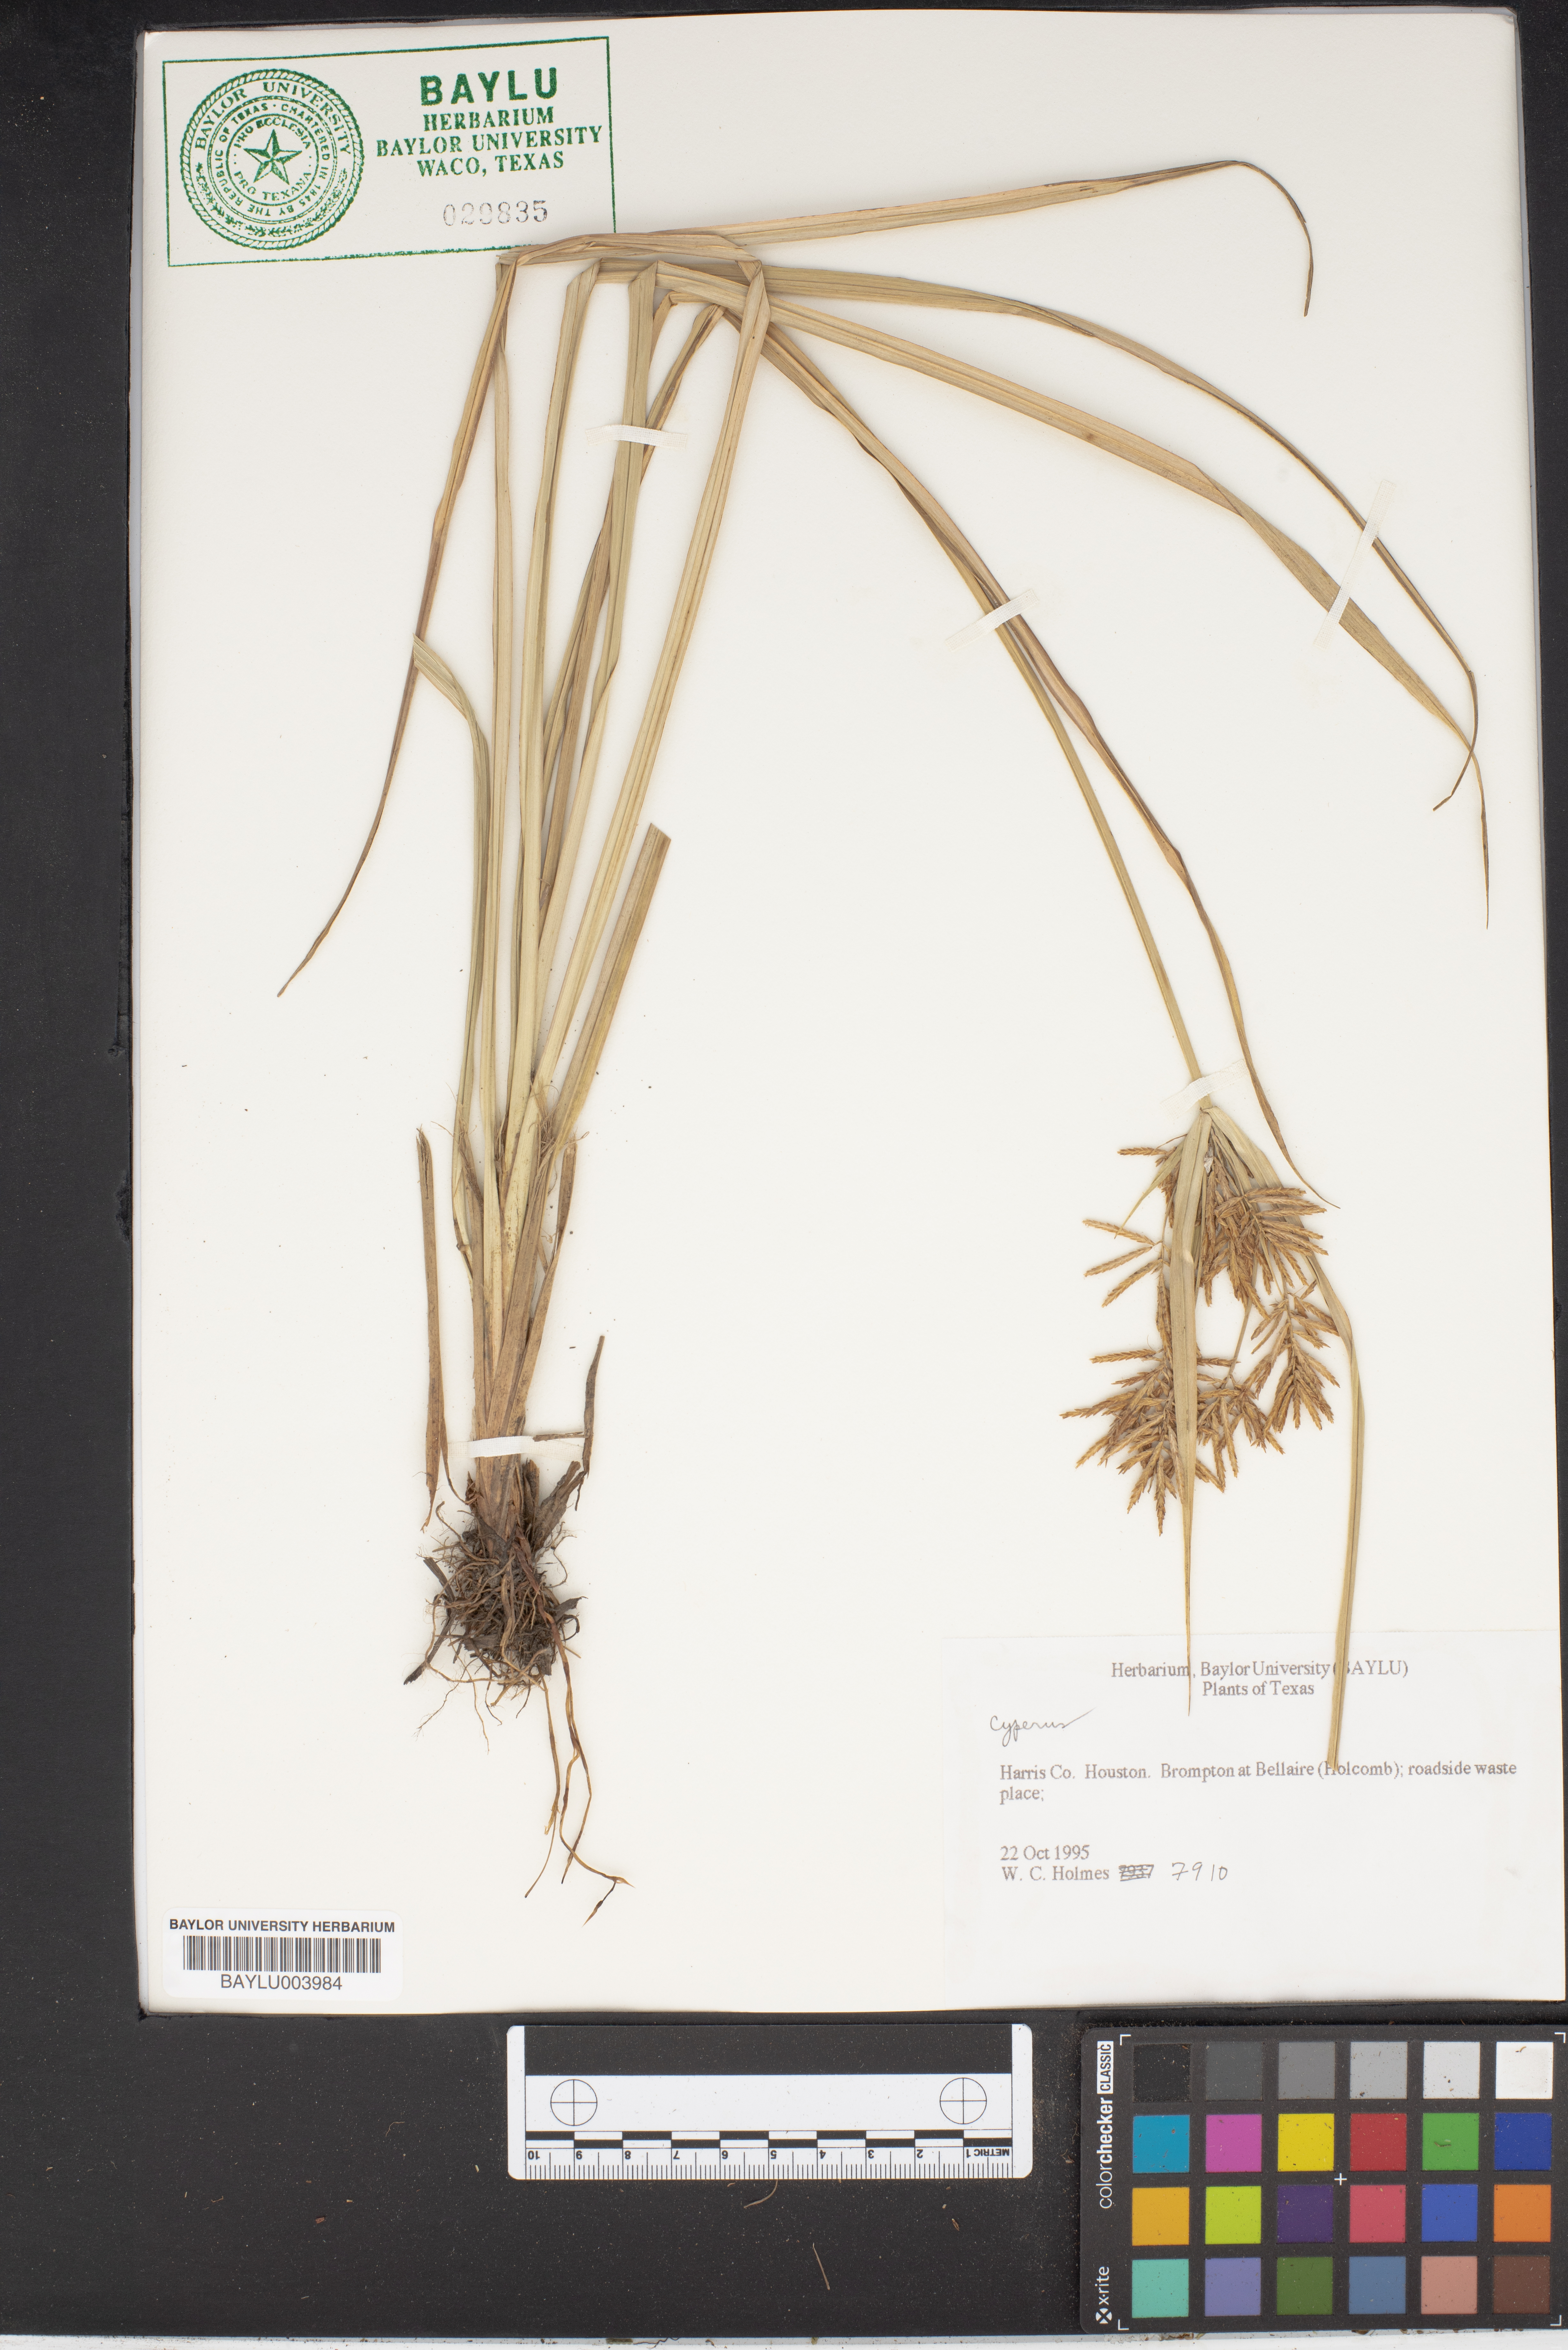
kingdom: Plantae
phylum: Tracheophyta
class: Liliopsida
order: Poales
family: Cyperaceae
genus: Cyperus
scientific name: Cyperus
